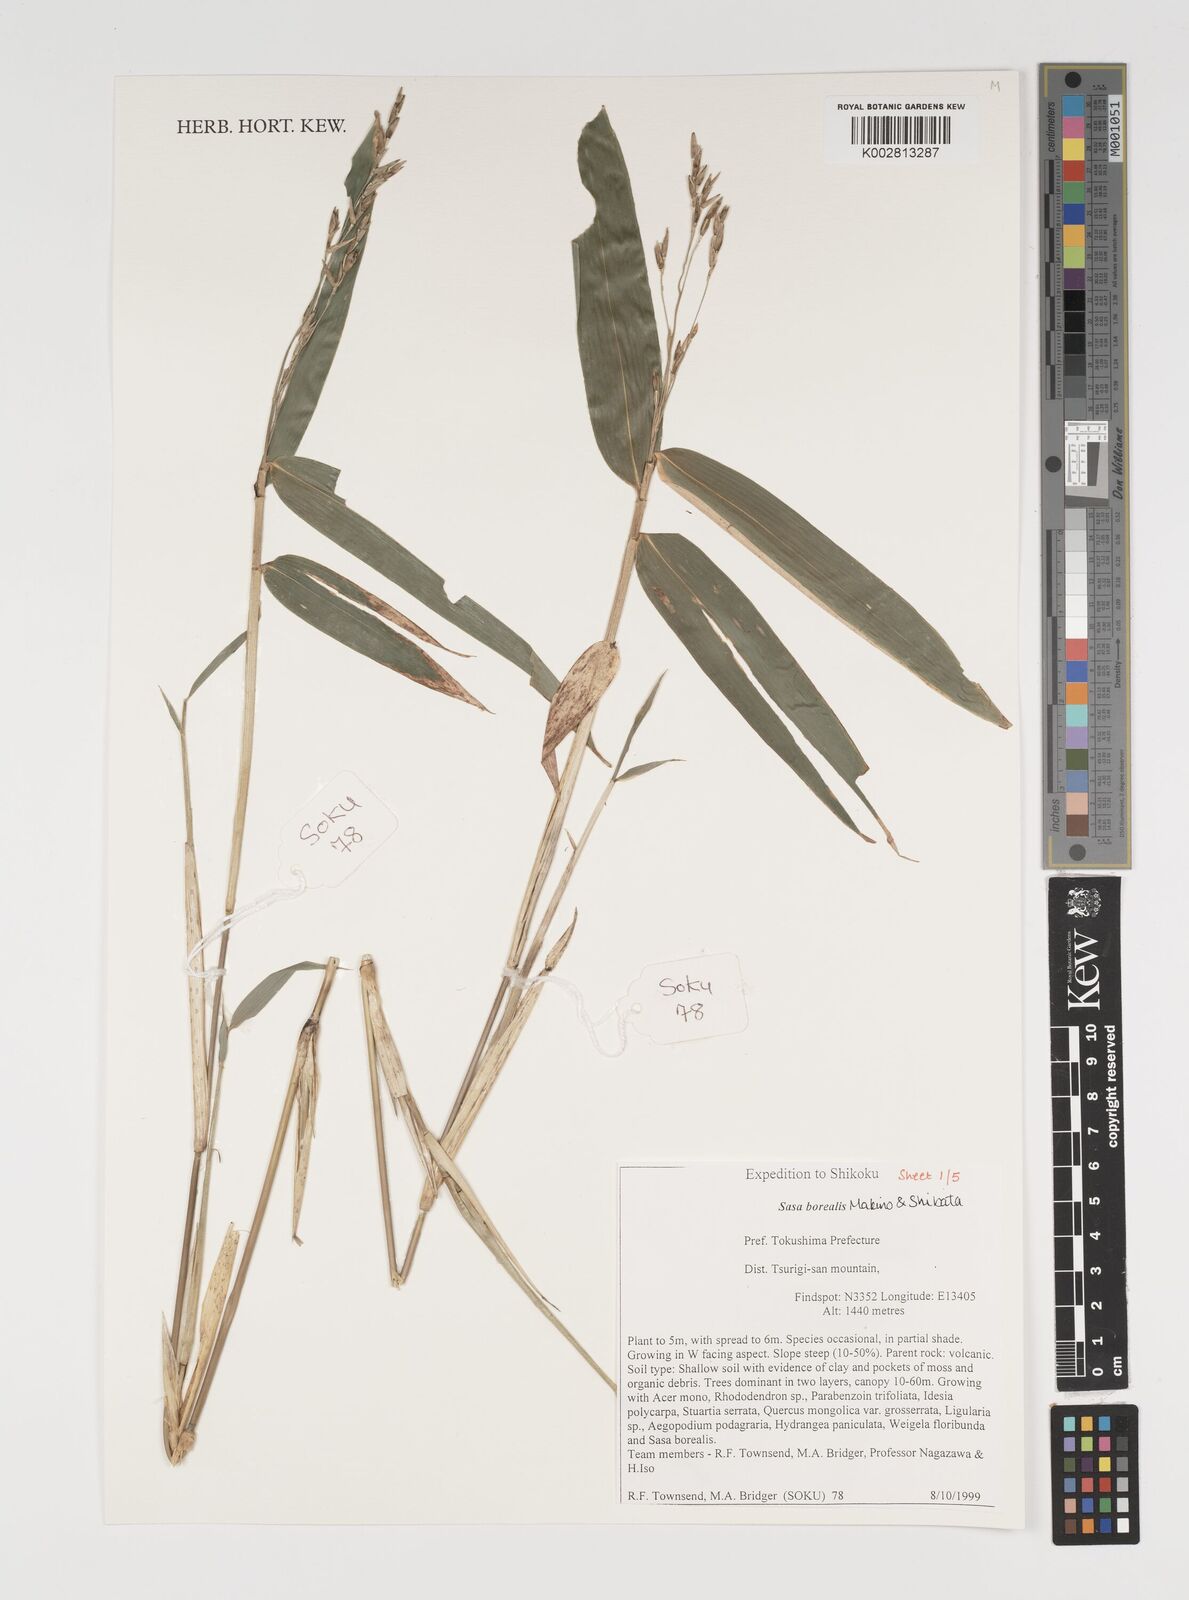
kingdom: Plantae
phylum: Tracheophyta
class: Liliopsida
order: Poales
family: Poaceae
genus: Sasamorpha
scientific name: Sasamorpha borealis
